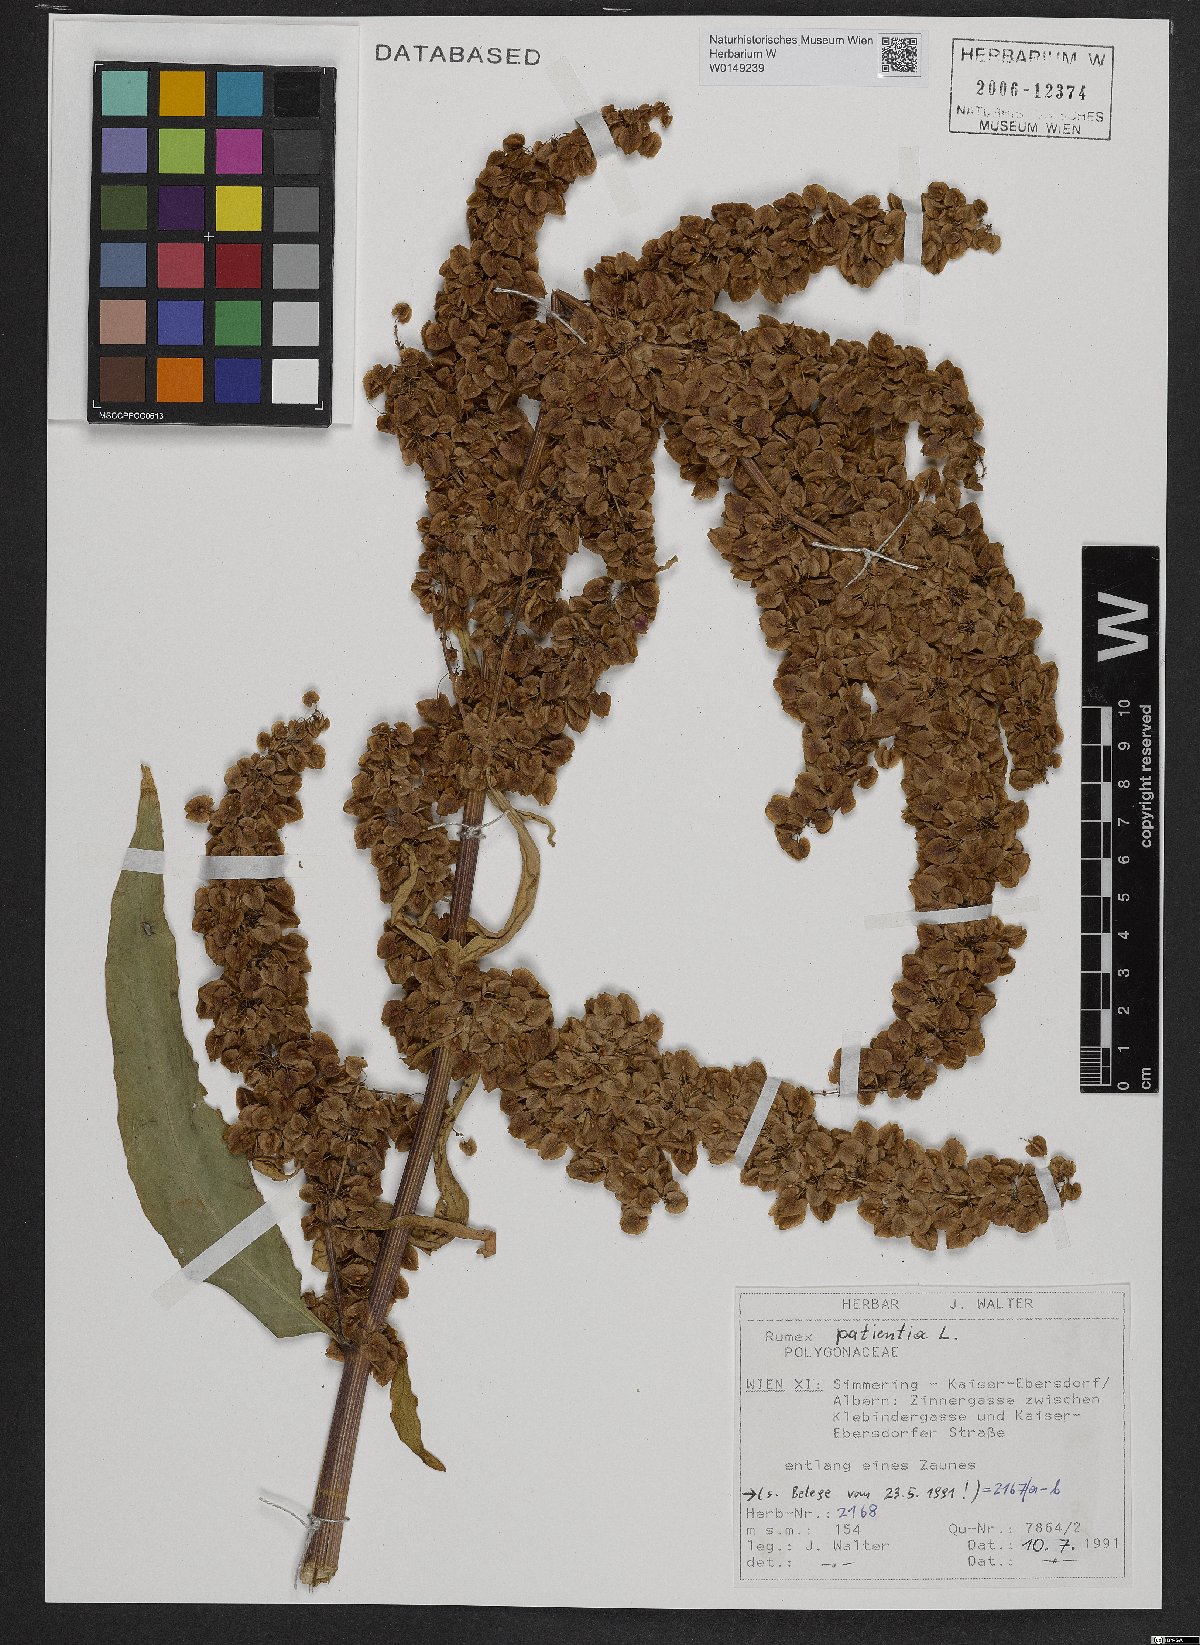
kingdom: Plantae
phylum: Tracheophyta
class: Magnoliopsida
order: Caryophyllales
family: Polygonaceae
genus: Rumex
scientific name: Rumex patientia
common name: Patience dock
